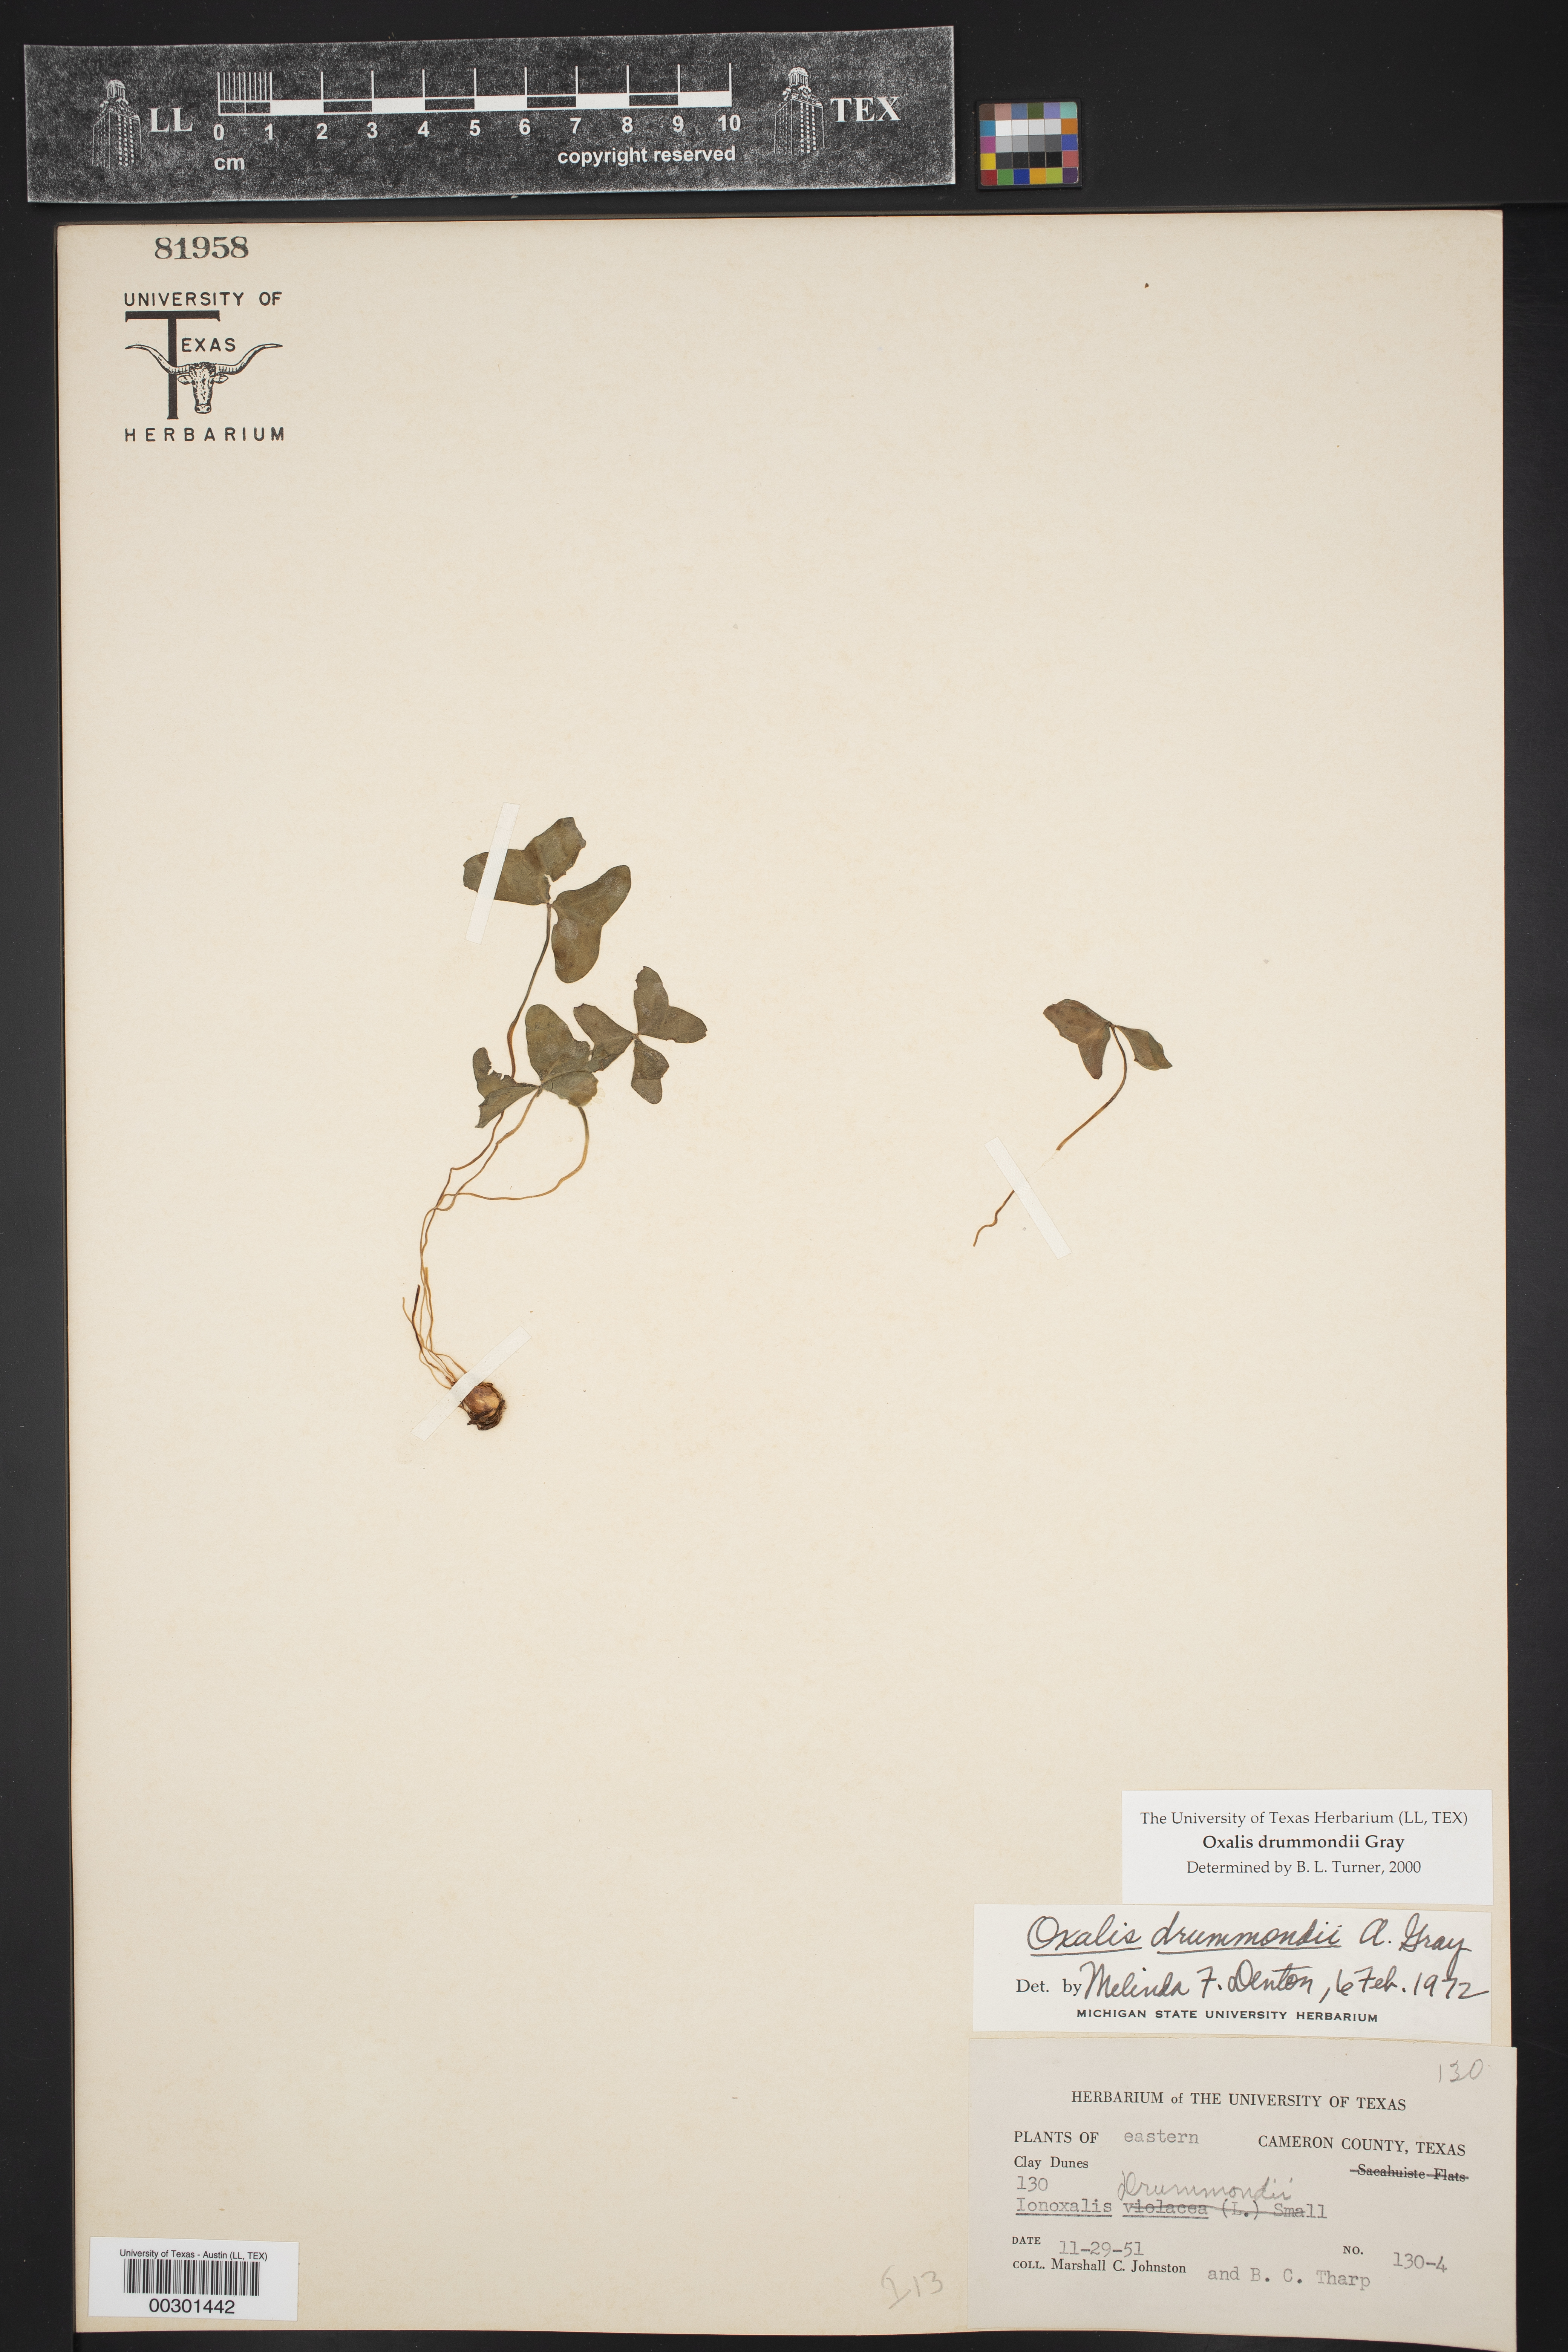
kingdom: Plantae
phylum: Tracheophyta
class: Magnoliopsida
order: Oxalidales
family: Oxalidaceae
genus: Oxalis
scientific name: Oxalis drummondii
